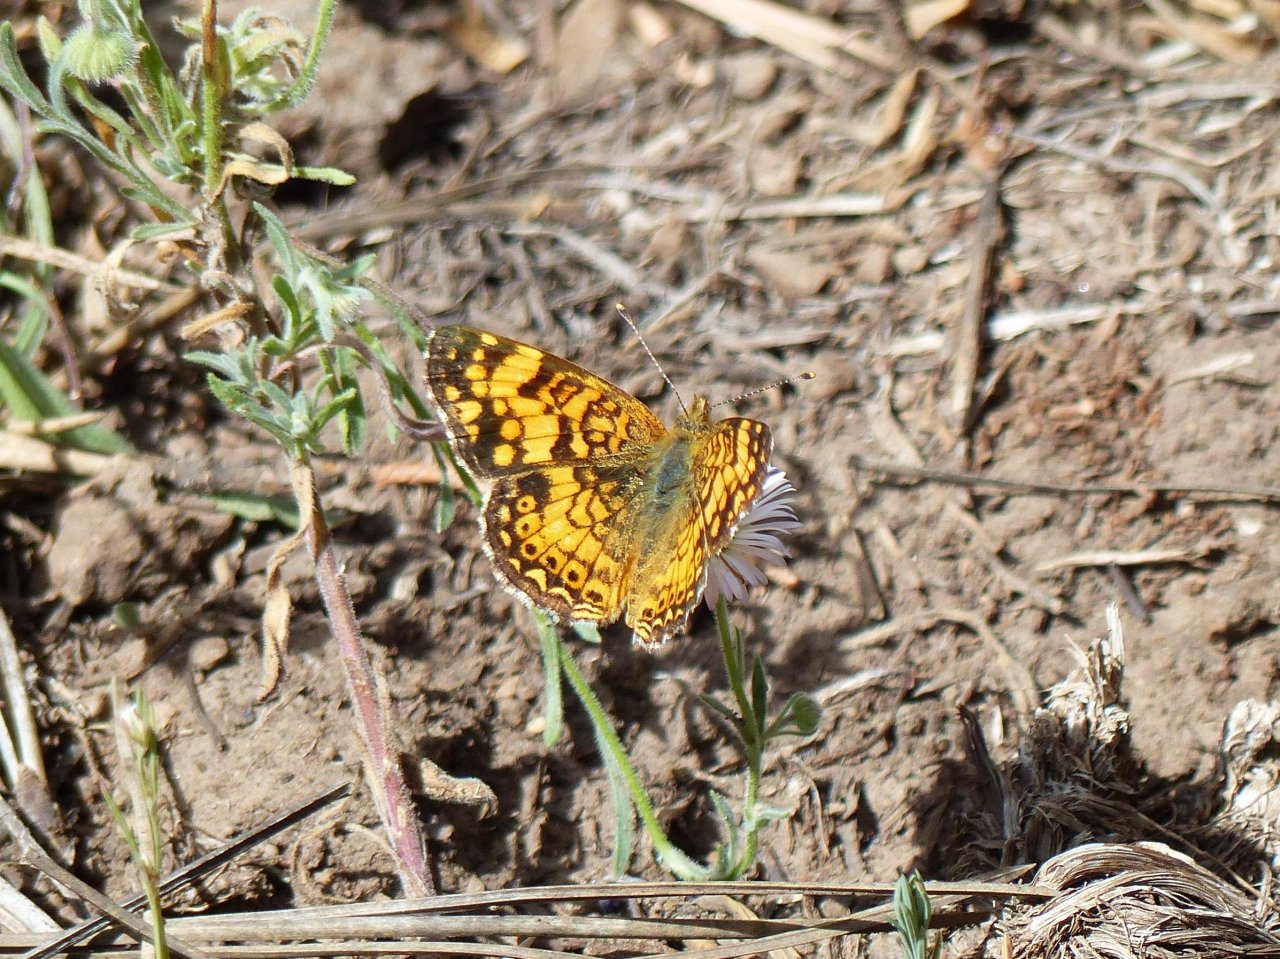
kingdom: Animalia
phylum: Arthropoda
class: Insecta
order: Lepidoptera
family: Nymphalidae
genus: Eresia
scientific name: Eresia aveyrona
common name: Mylitta Crescent
